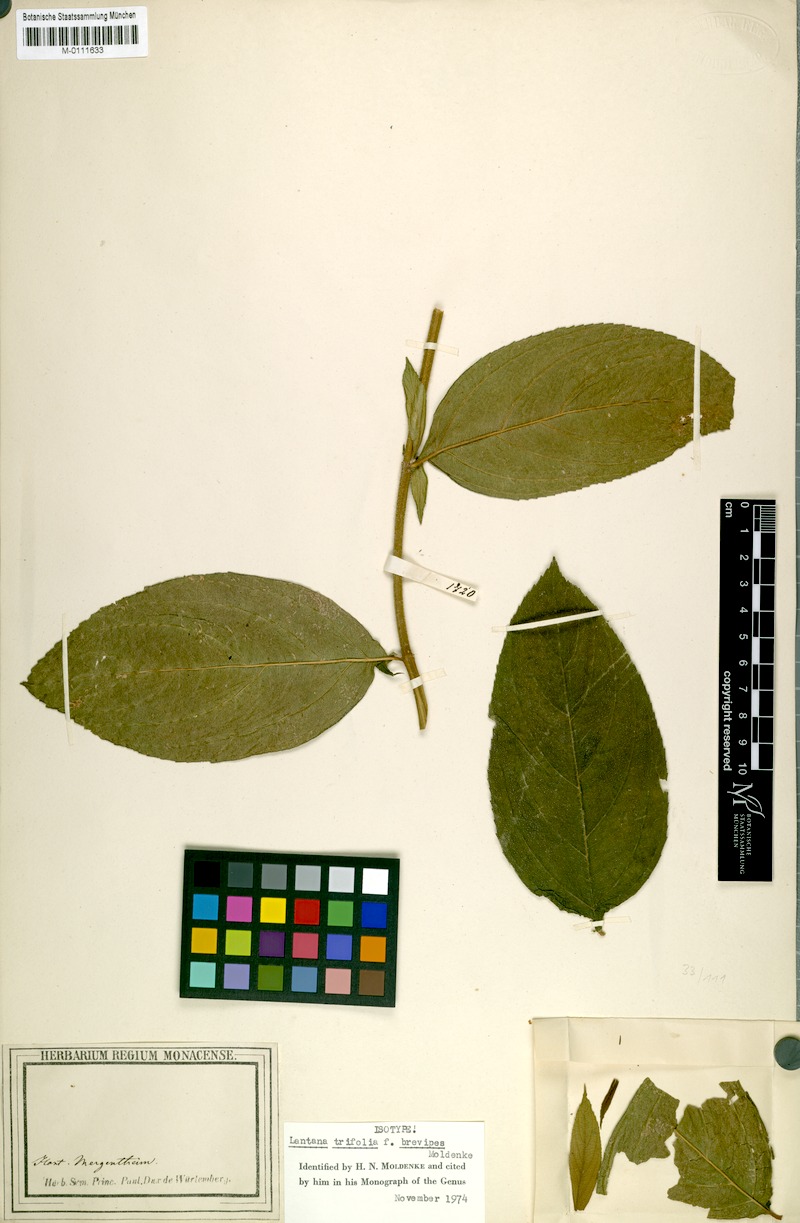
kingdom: Plantae
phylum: Tracheophyta
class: Magnoliopsida
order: Lamiales
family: Verbenaceae
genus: Lantana
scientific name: Lantana trifolia
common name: Sweet-sage
